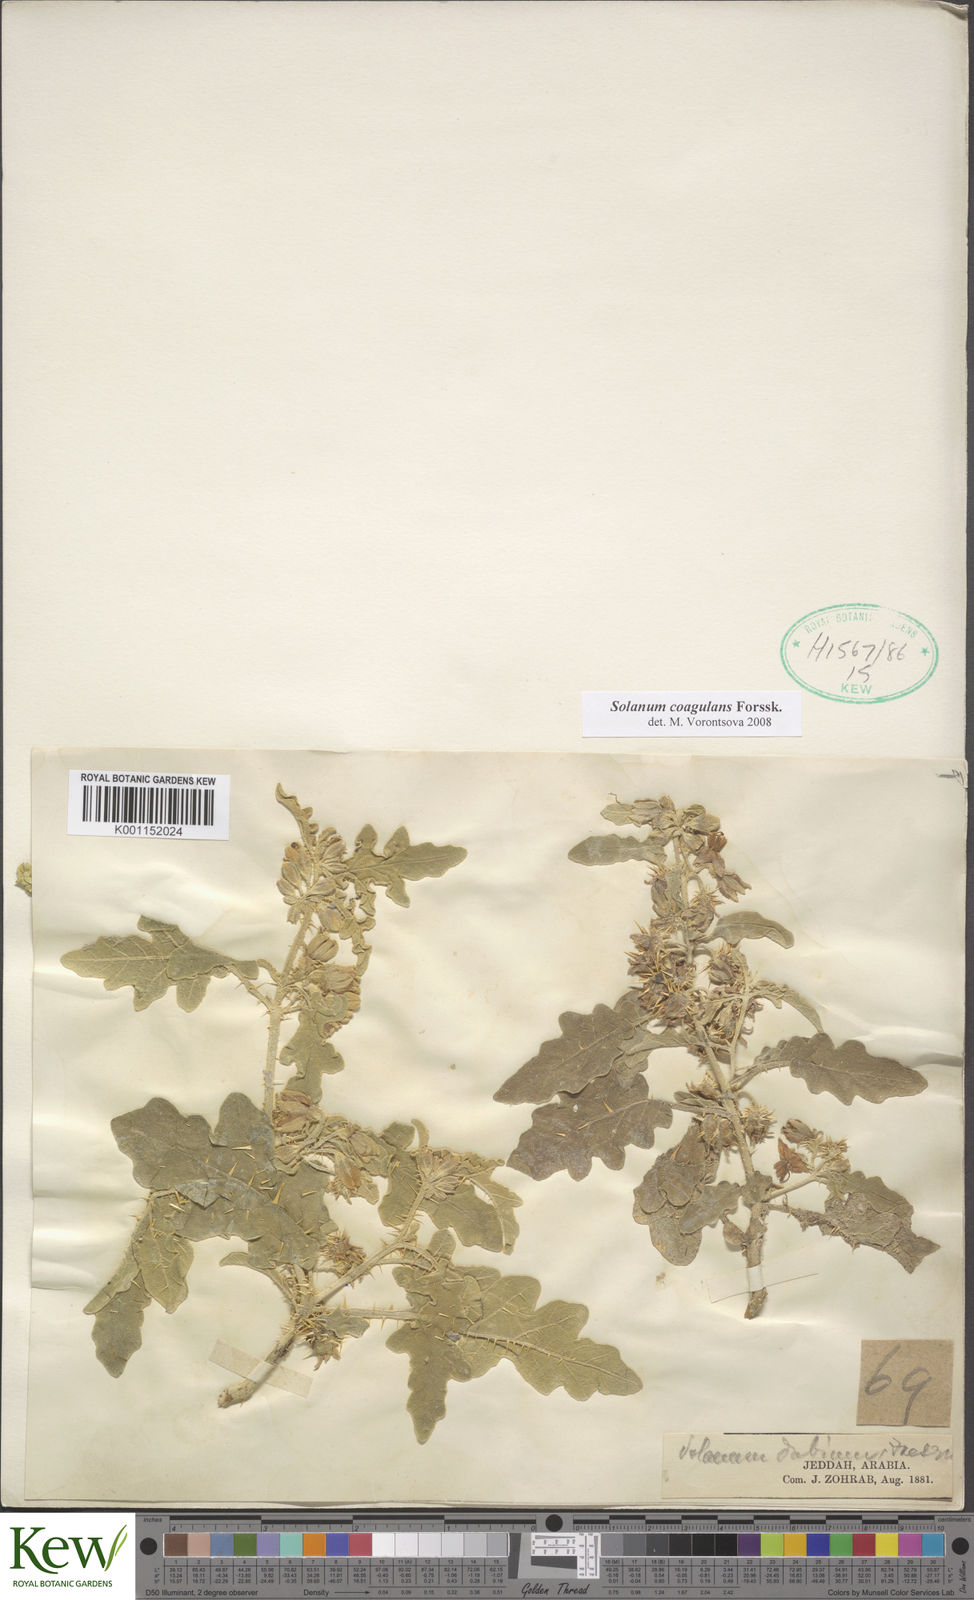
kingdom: Plantae
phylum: Tracheophyta
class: Magnoliopsida
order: Solanales
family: Solanaceae
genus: Solanum
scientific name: Solanum coagulans
